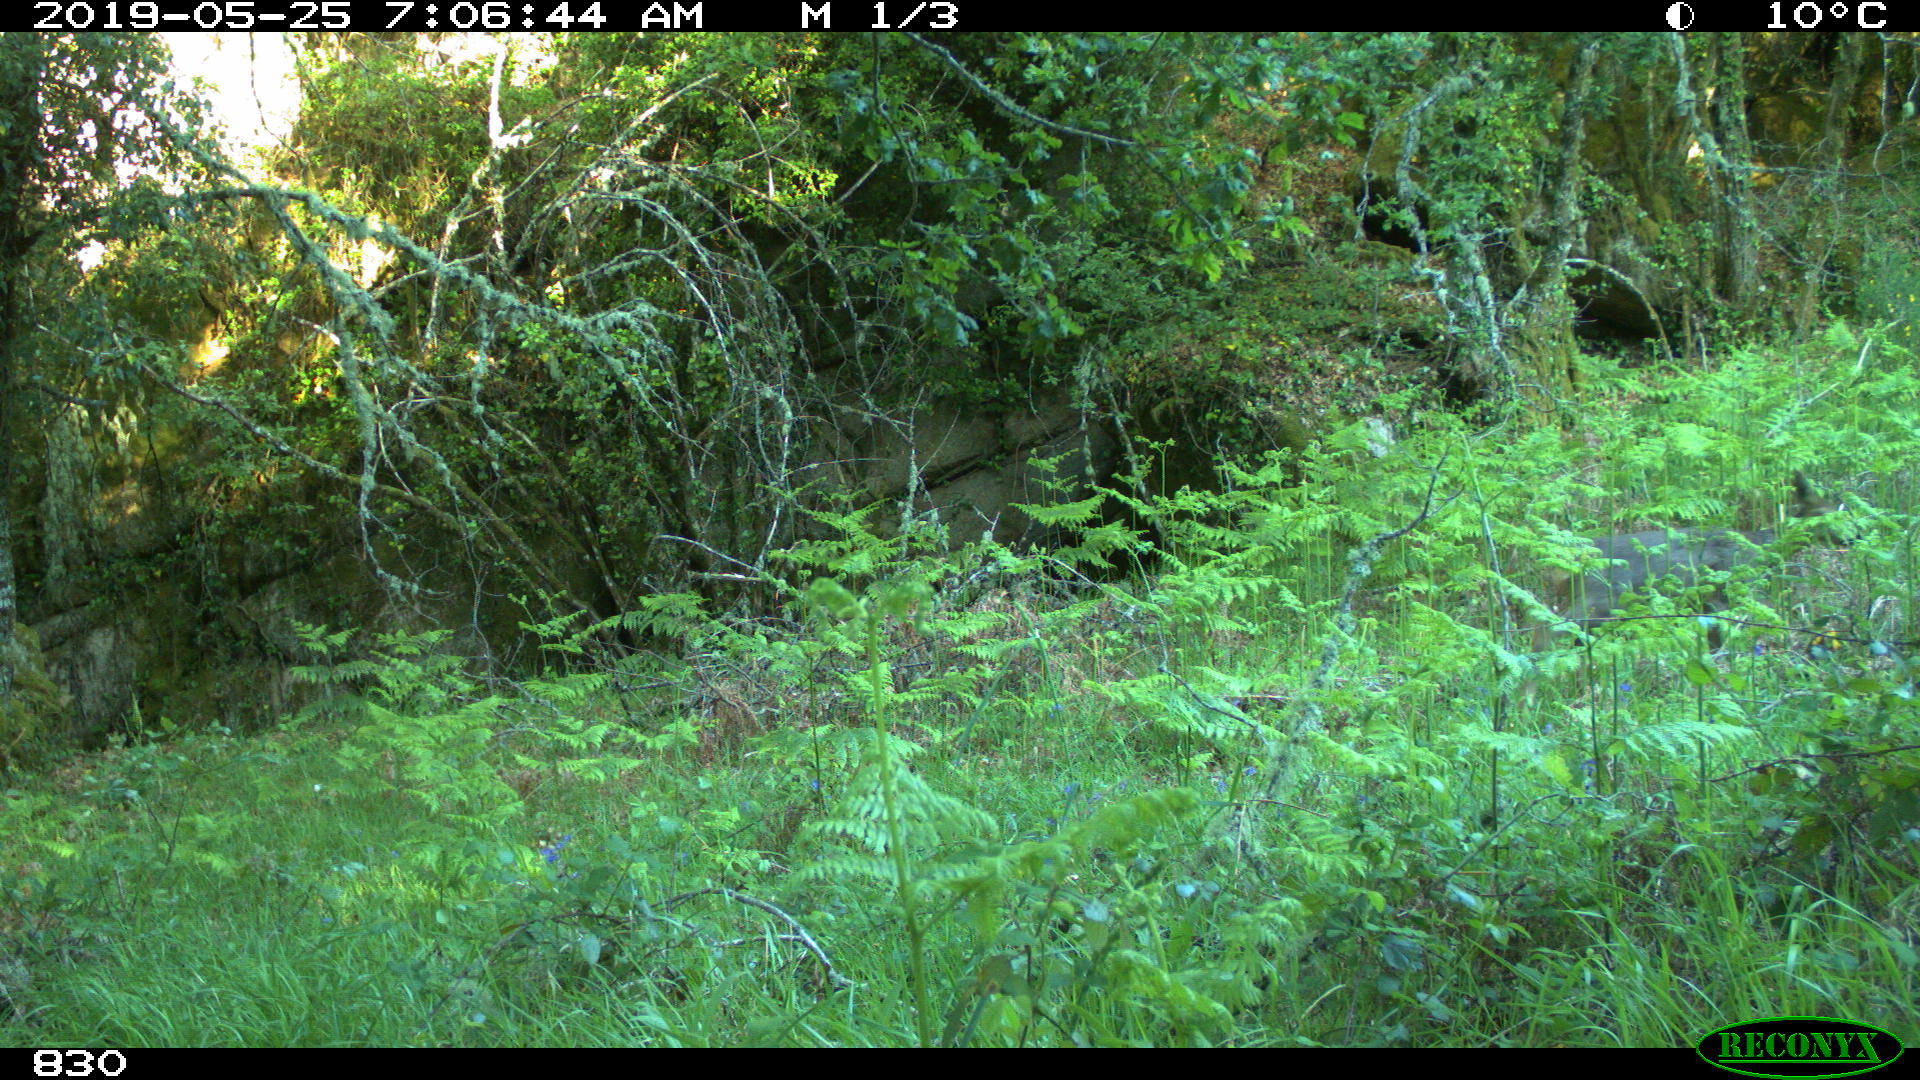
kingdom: Animalia
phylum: Chordata
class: Mammalia
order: Artiodactyla
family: Cervidae
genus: Capreolus
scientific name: Capreolus capreolus
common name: Western roe deer
